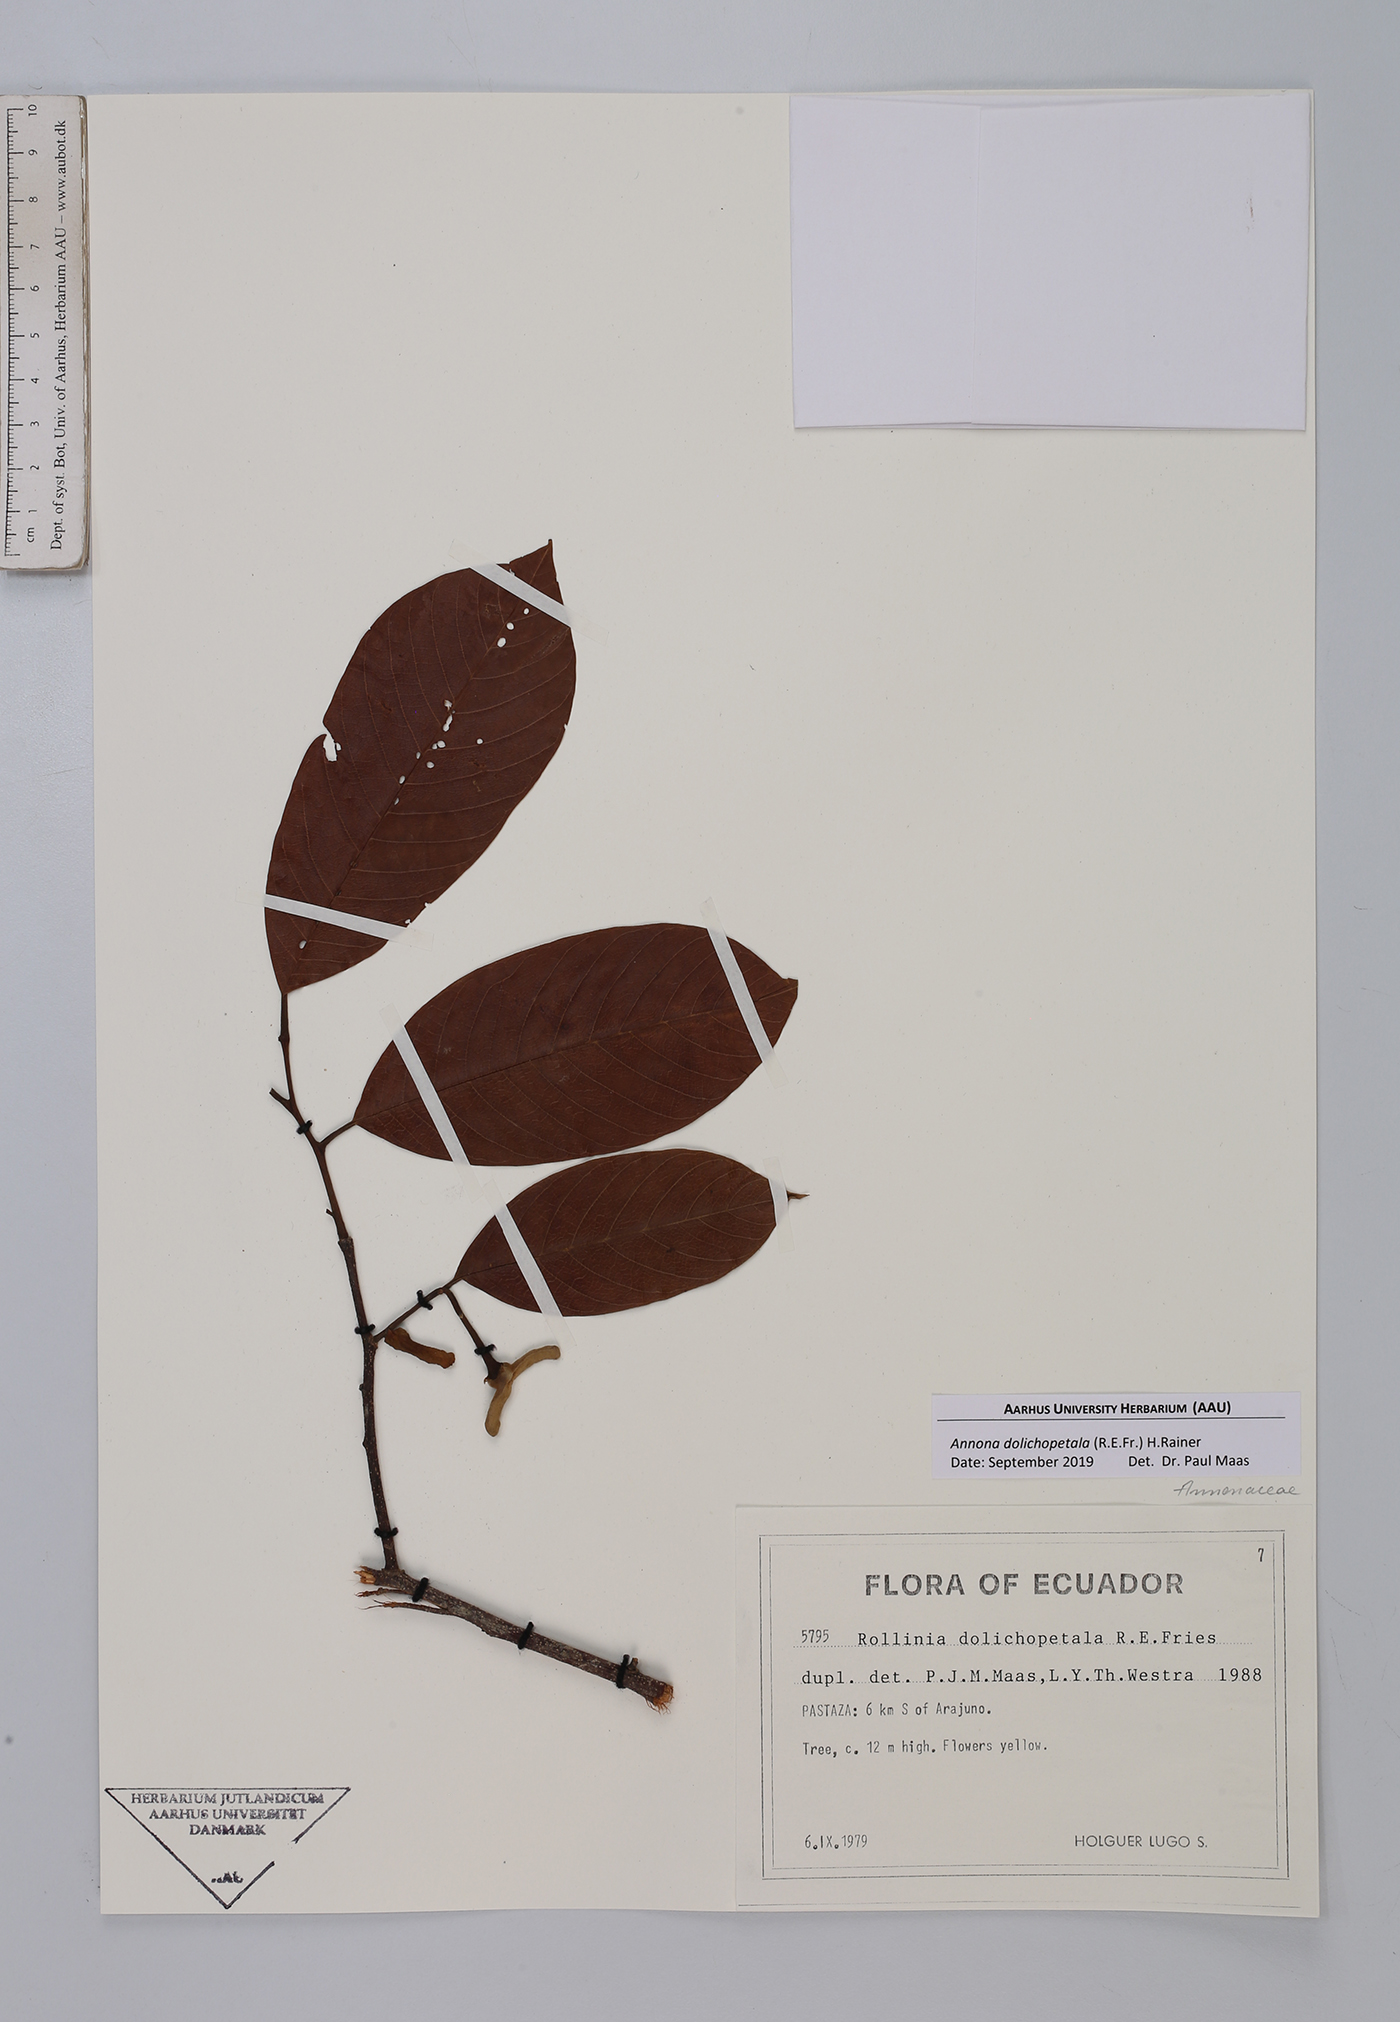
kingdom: Plantae
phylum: Tracheophyta
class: Magnoliopsida
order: Magnoliales
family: Annonaceae
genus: Annona
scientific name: Annona dolichopetala
